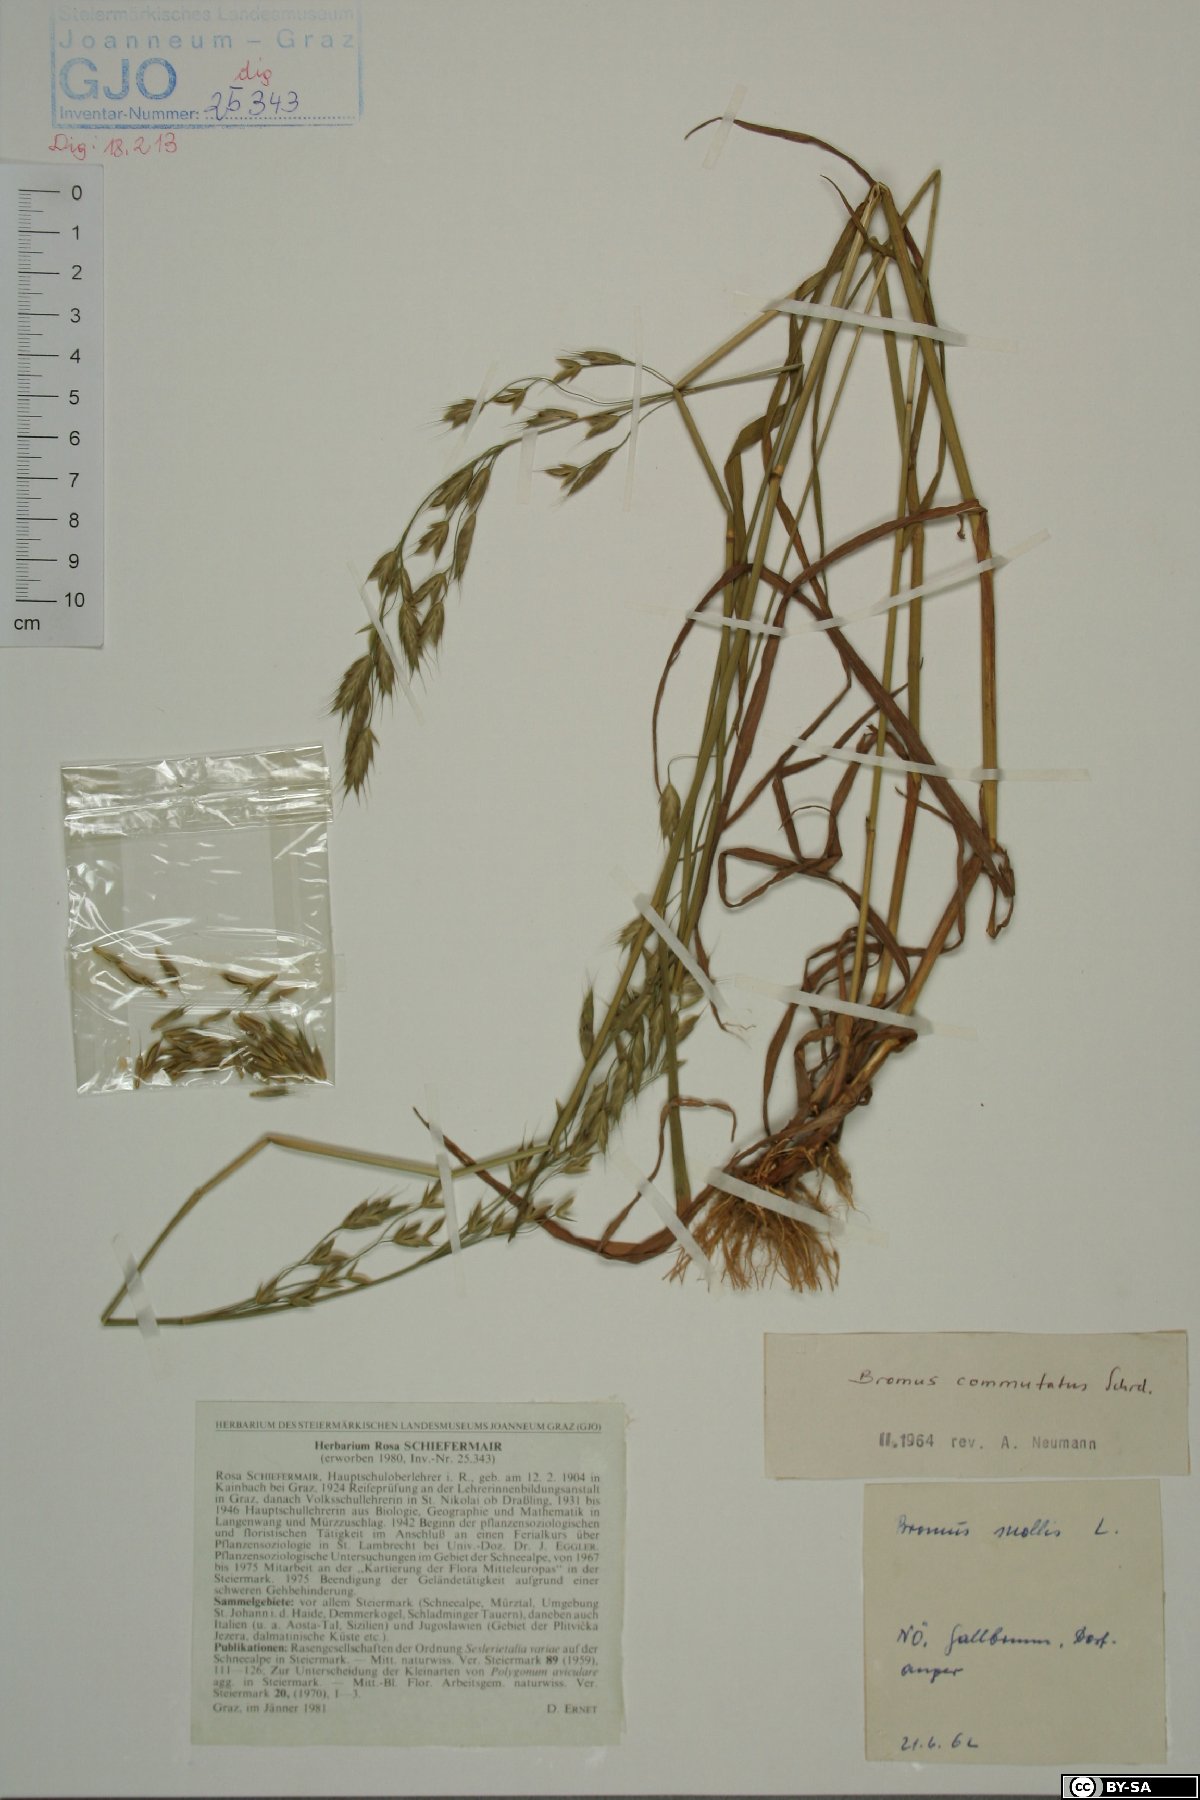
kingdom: Plantae
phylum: Tracheophyta
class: Liliopsida
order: Poales
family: Poaceae
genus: Bromus
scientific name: Bromus commutatus
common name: Meadow brome
